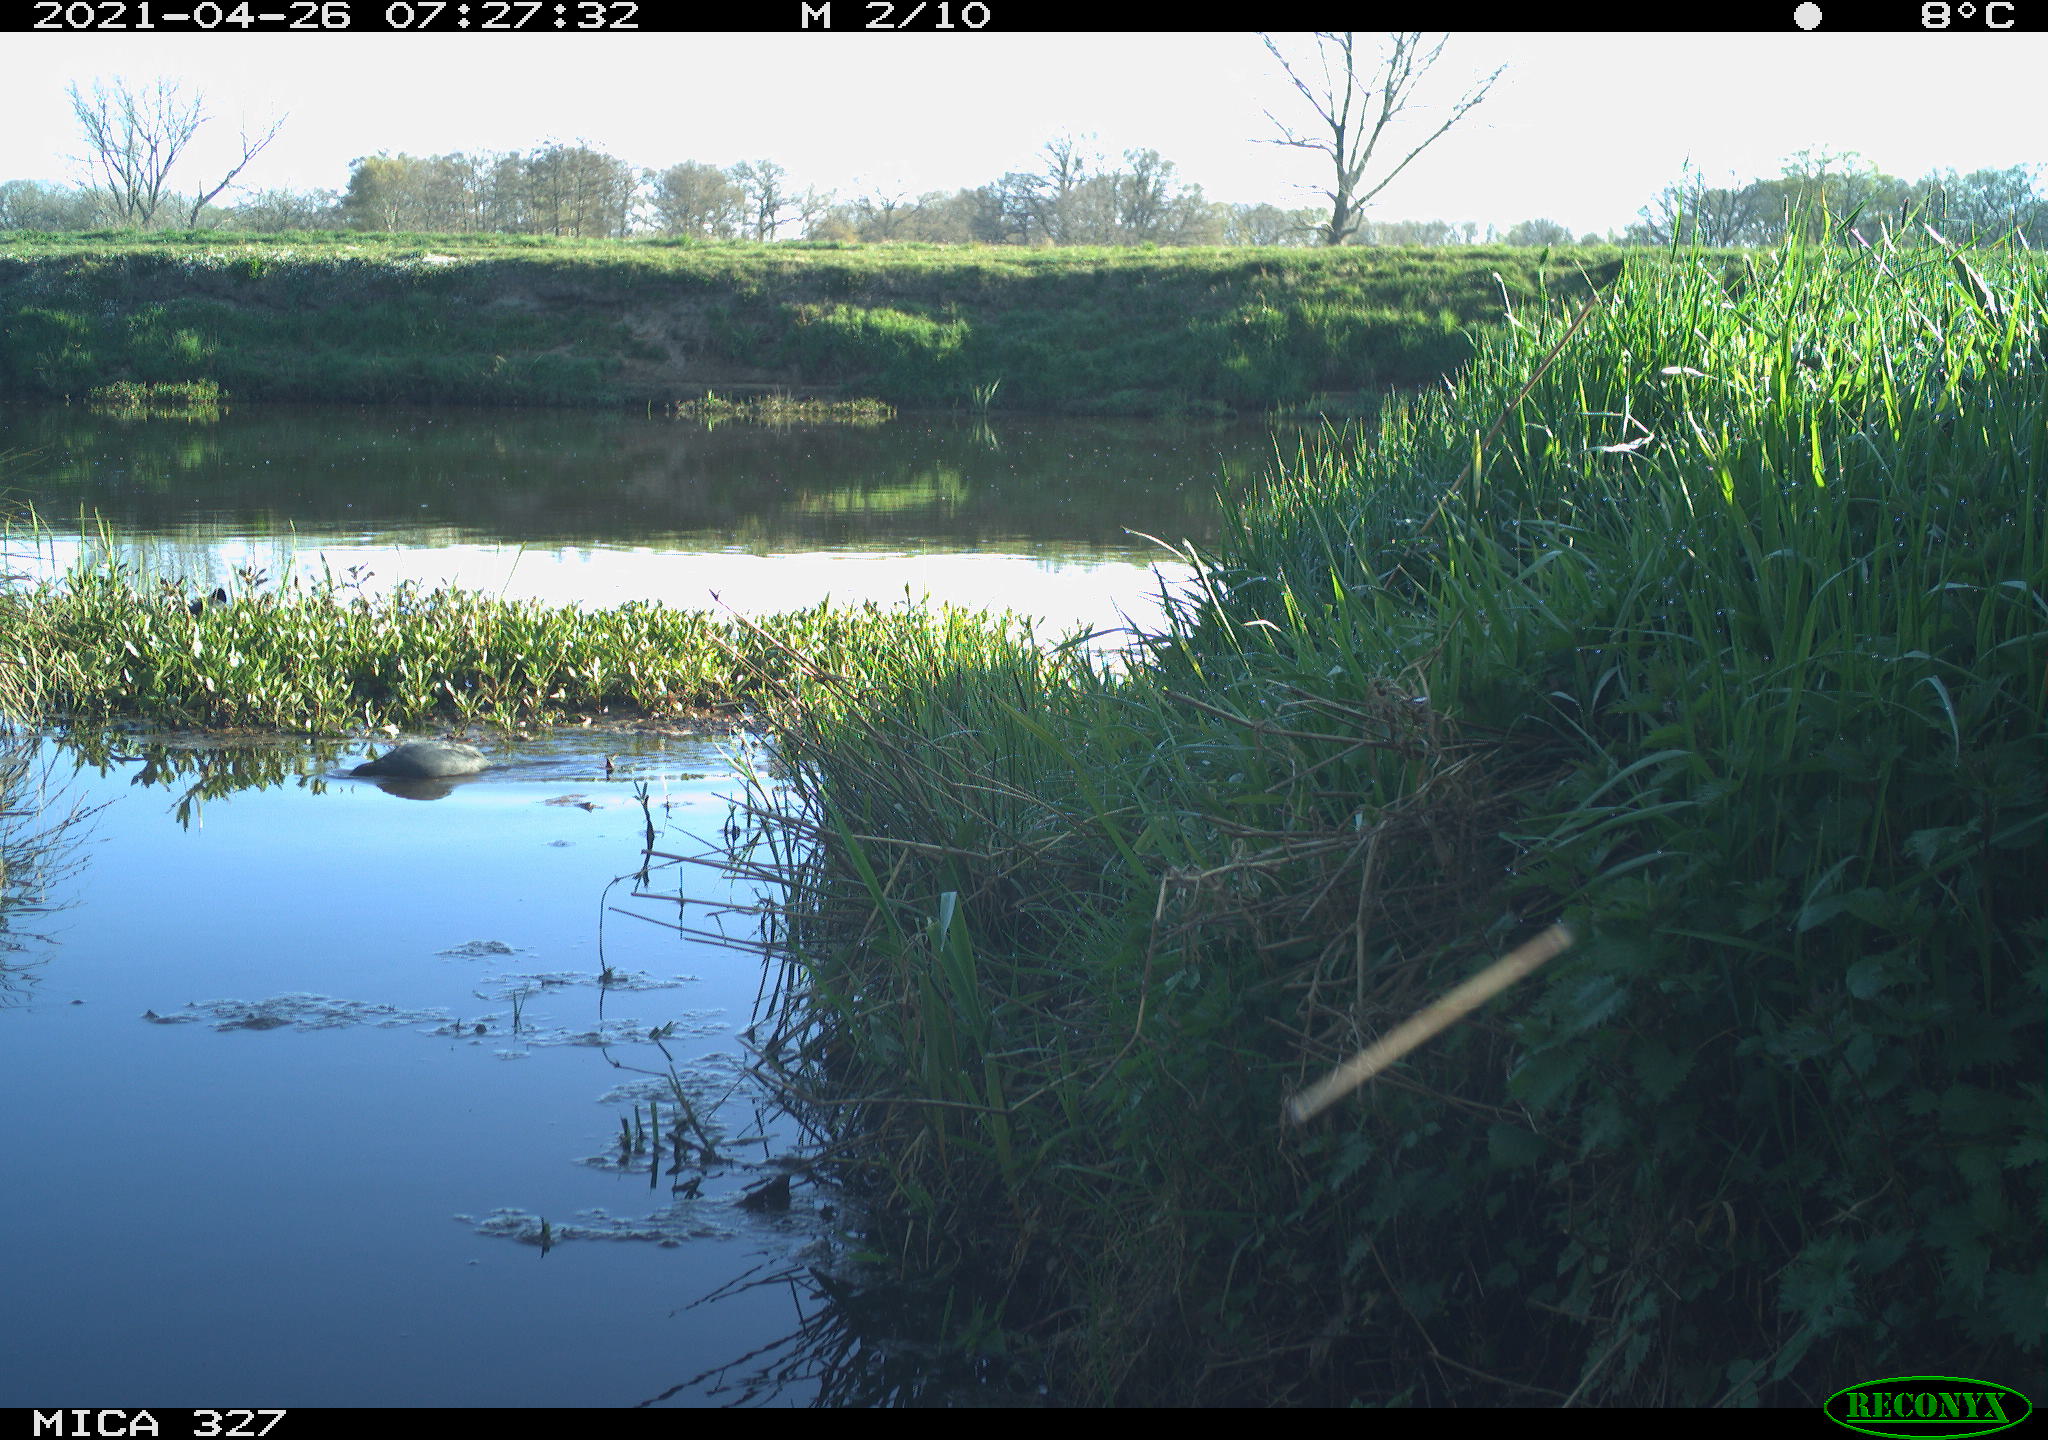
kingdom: Animalia
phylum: Chordata
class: Aves
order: Gruiformes
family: Rallidae
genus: Fulica
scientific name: Fulica atra
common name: Eurasian coot
